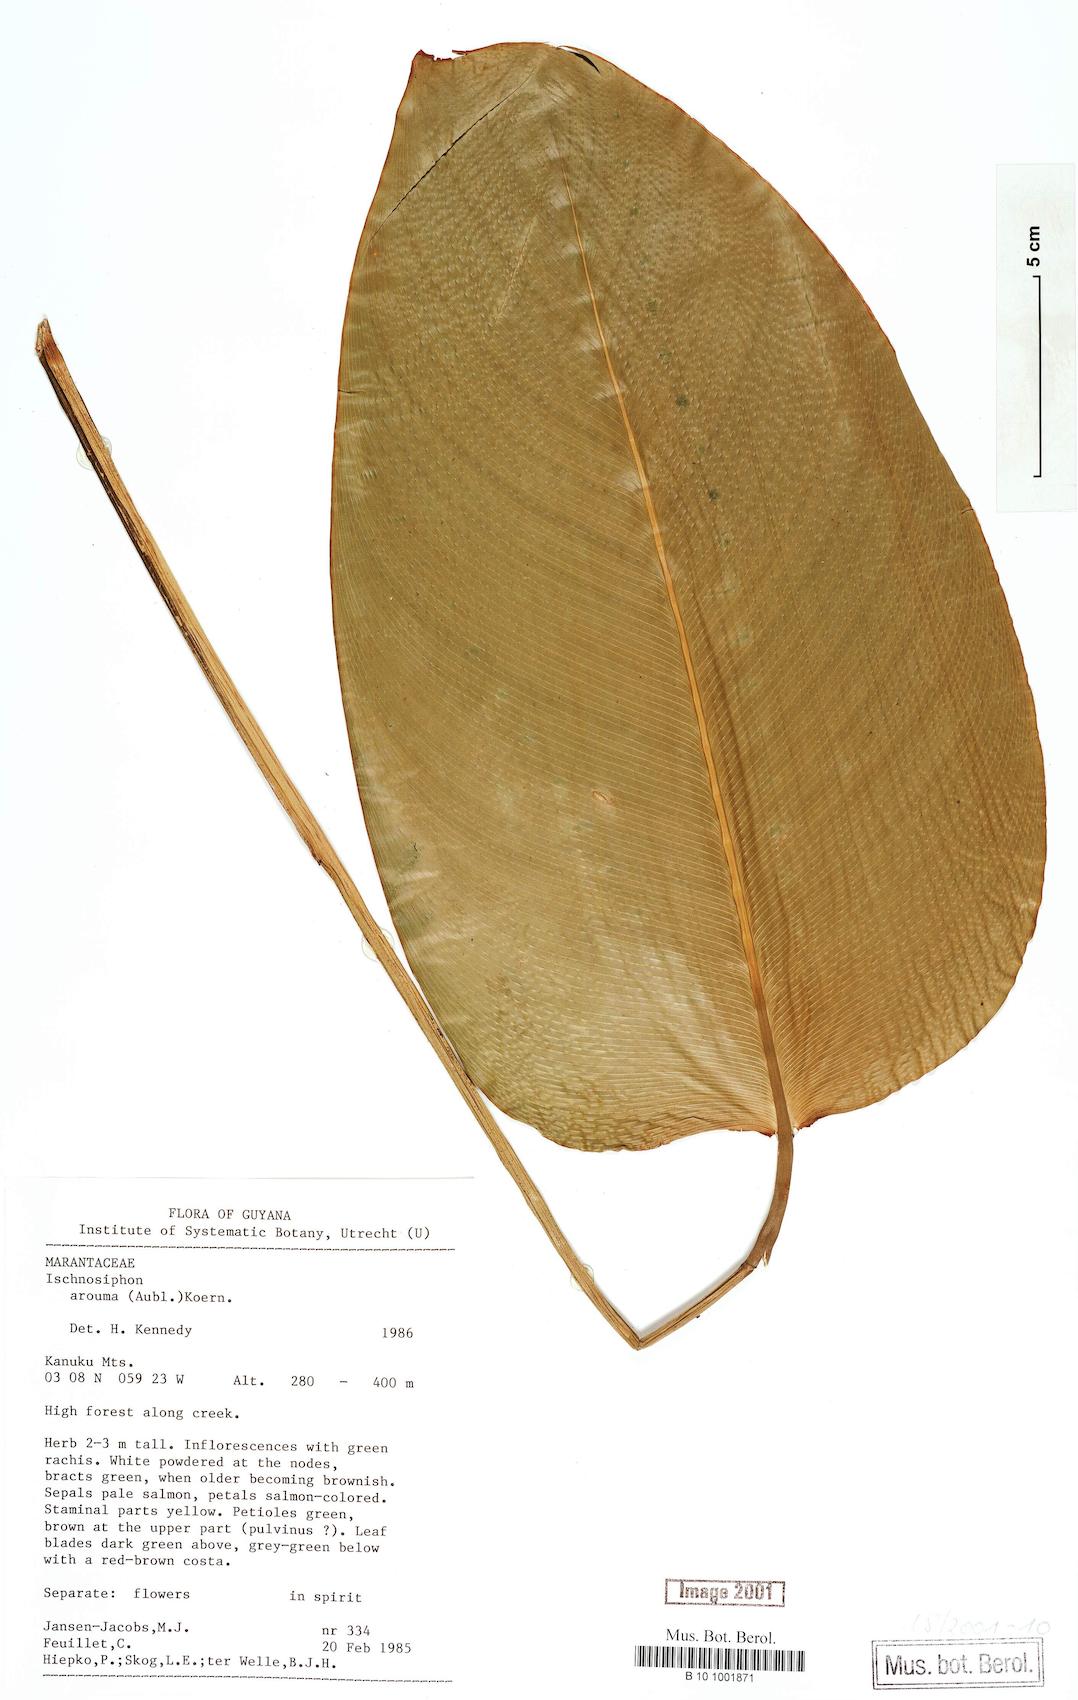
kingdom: Plantae
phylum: Tracheophyta
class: Liliopsida
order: Zingiberales
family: Marantaceae
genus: Ischnosiphon
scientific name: Ischnosiphon arouma
